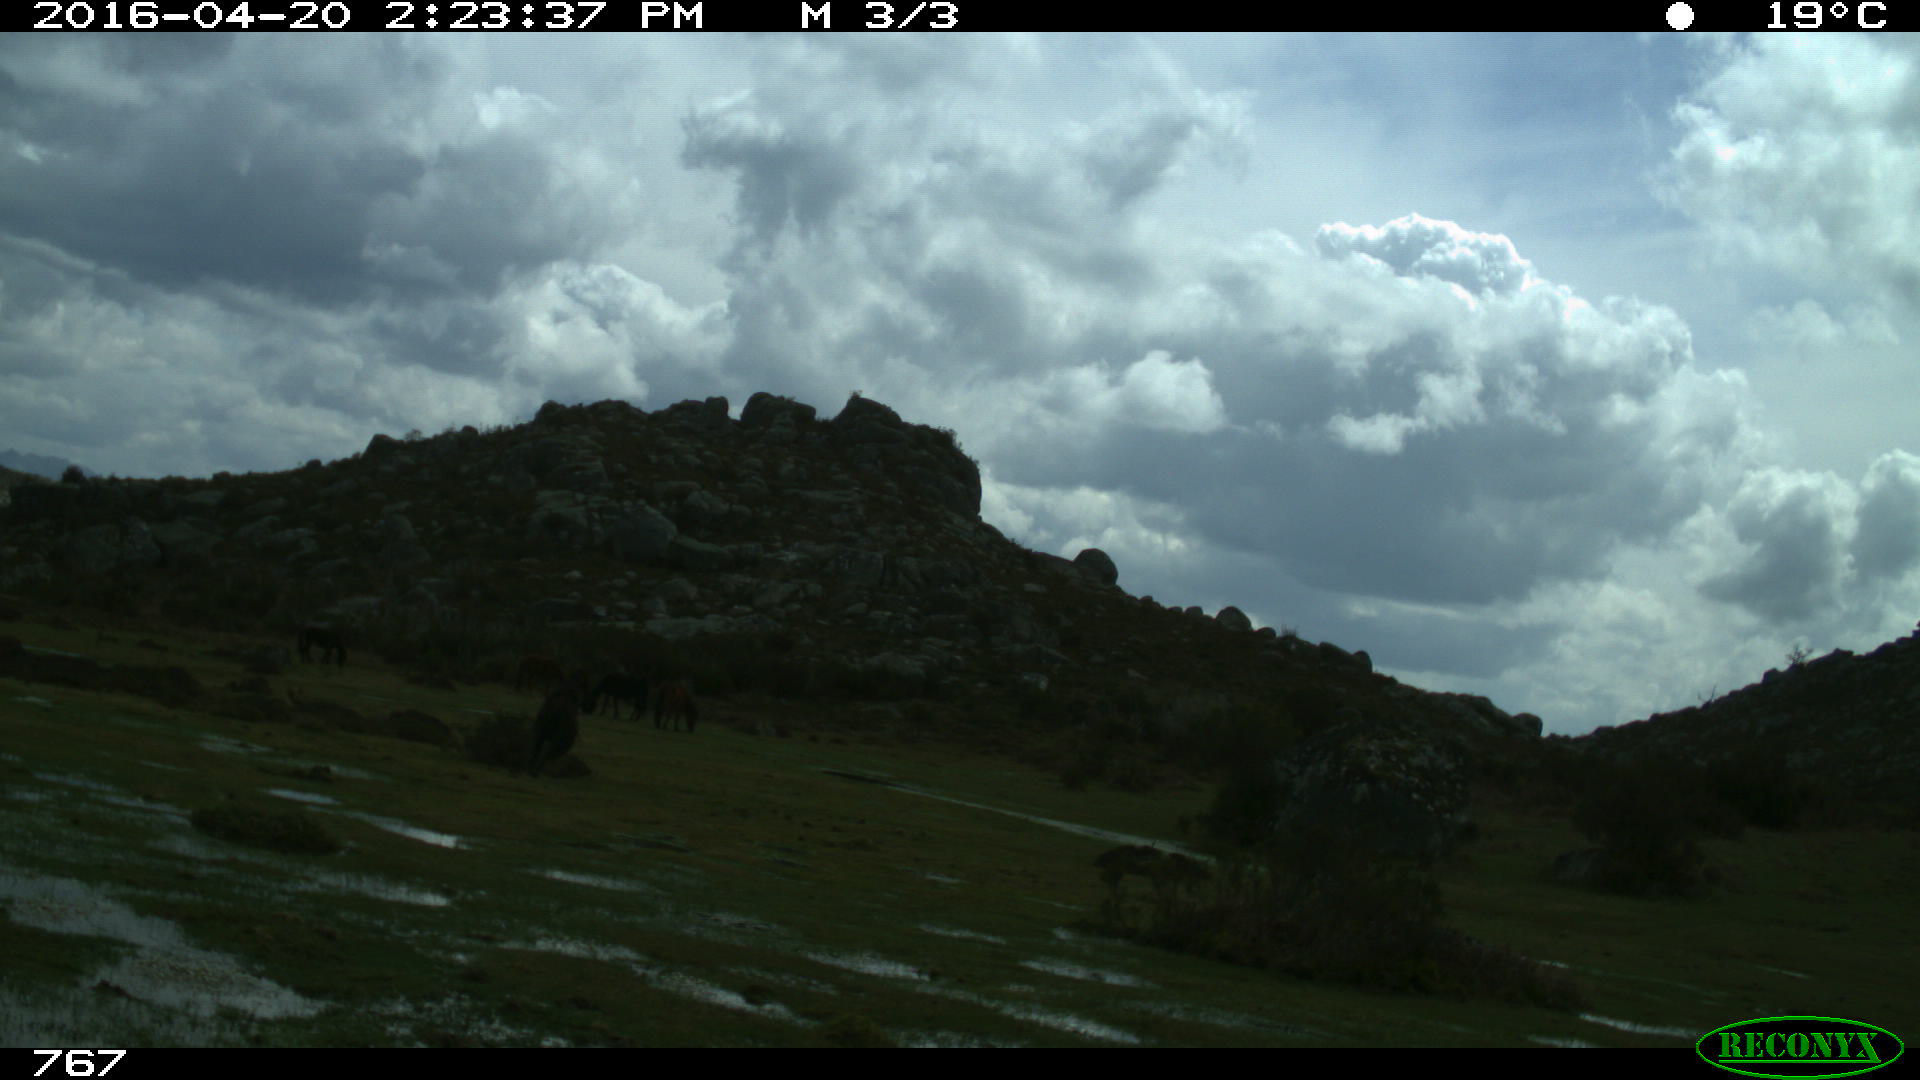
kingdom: Animalia
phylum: Chordata
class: Mammalia
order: Perissodactyla
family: Equidae
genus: Equus
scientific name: Equus caballus
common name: Horse
